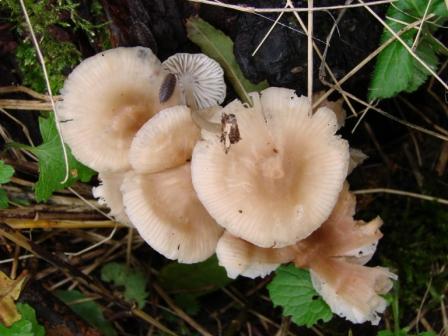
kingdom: Fungi
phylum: Basidiomycota
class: Agaricomycetes
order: Agaricales
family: Mycenaceae
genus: Mycena
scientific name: Mycena galericulata
